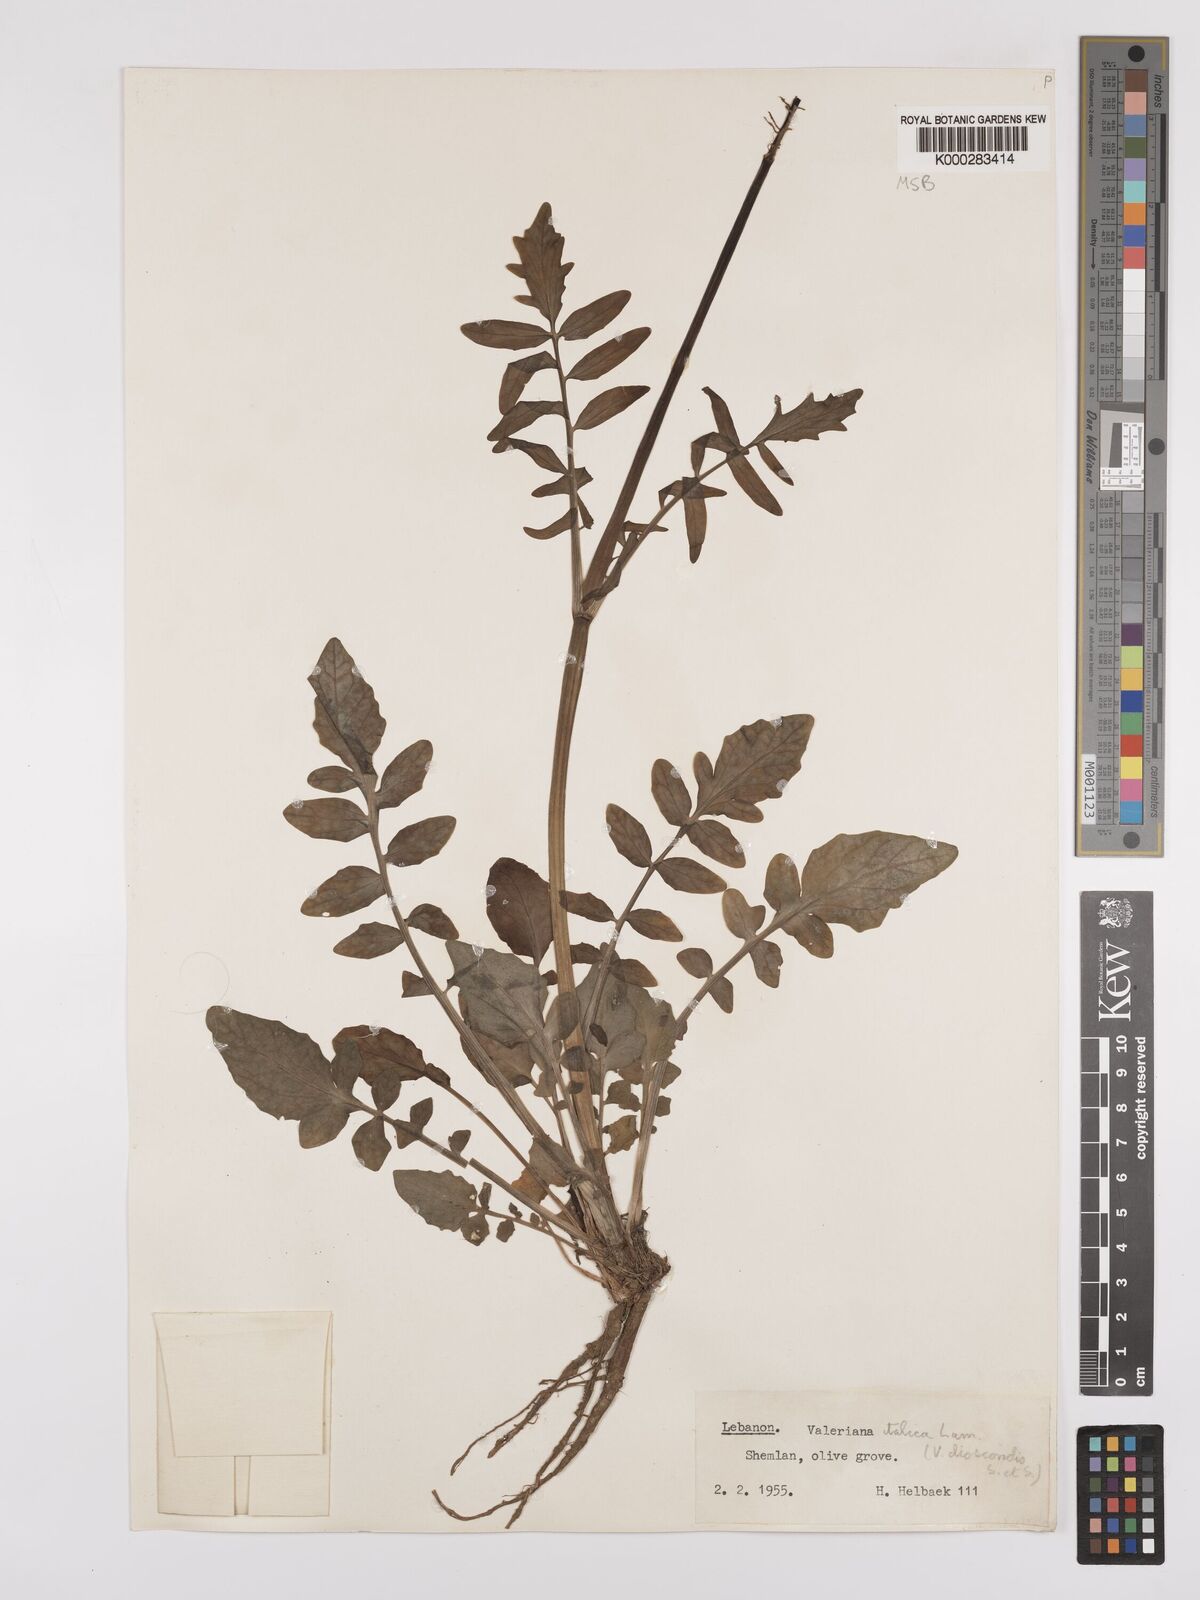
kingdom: Plantae
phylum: Tracheophyta
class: Magnoliopsida
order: Dipsacales
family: Caprifoliaceae
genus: Valeriana
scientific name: Valeriana dioscoridis
